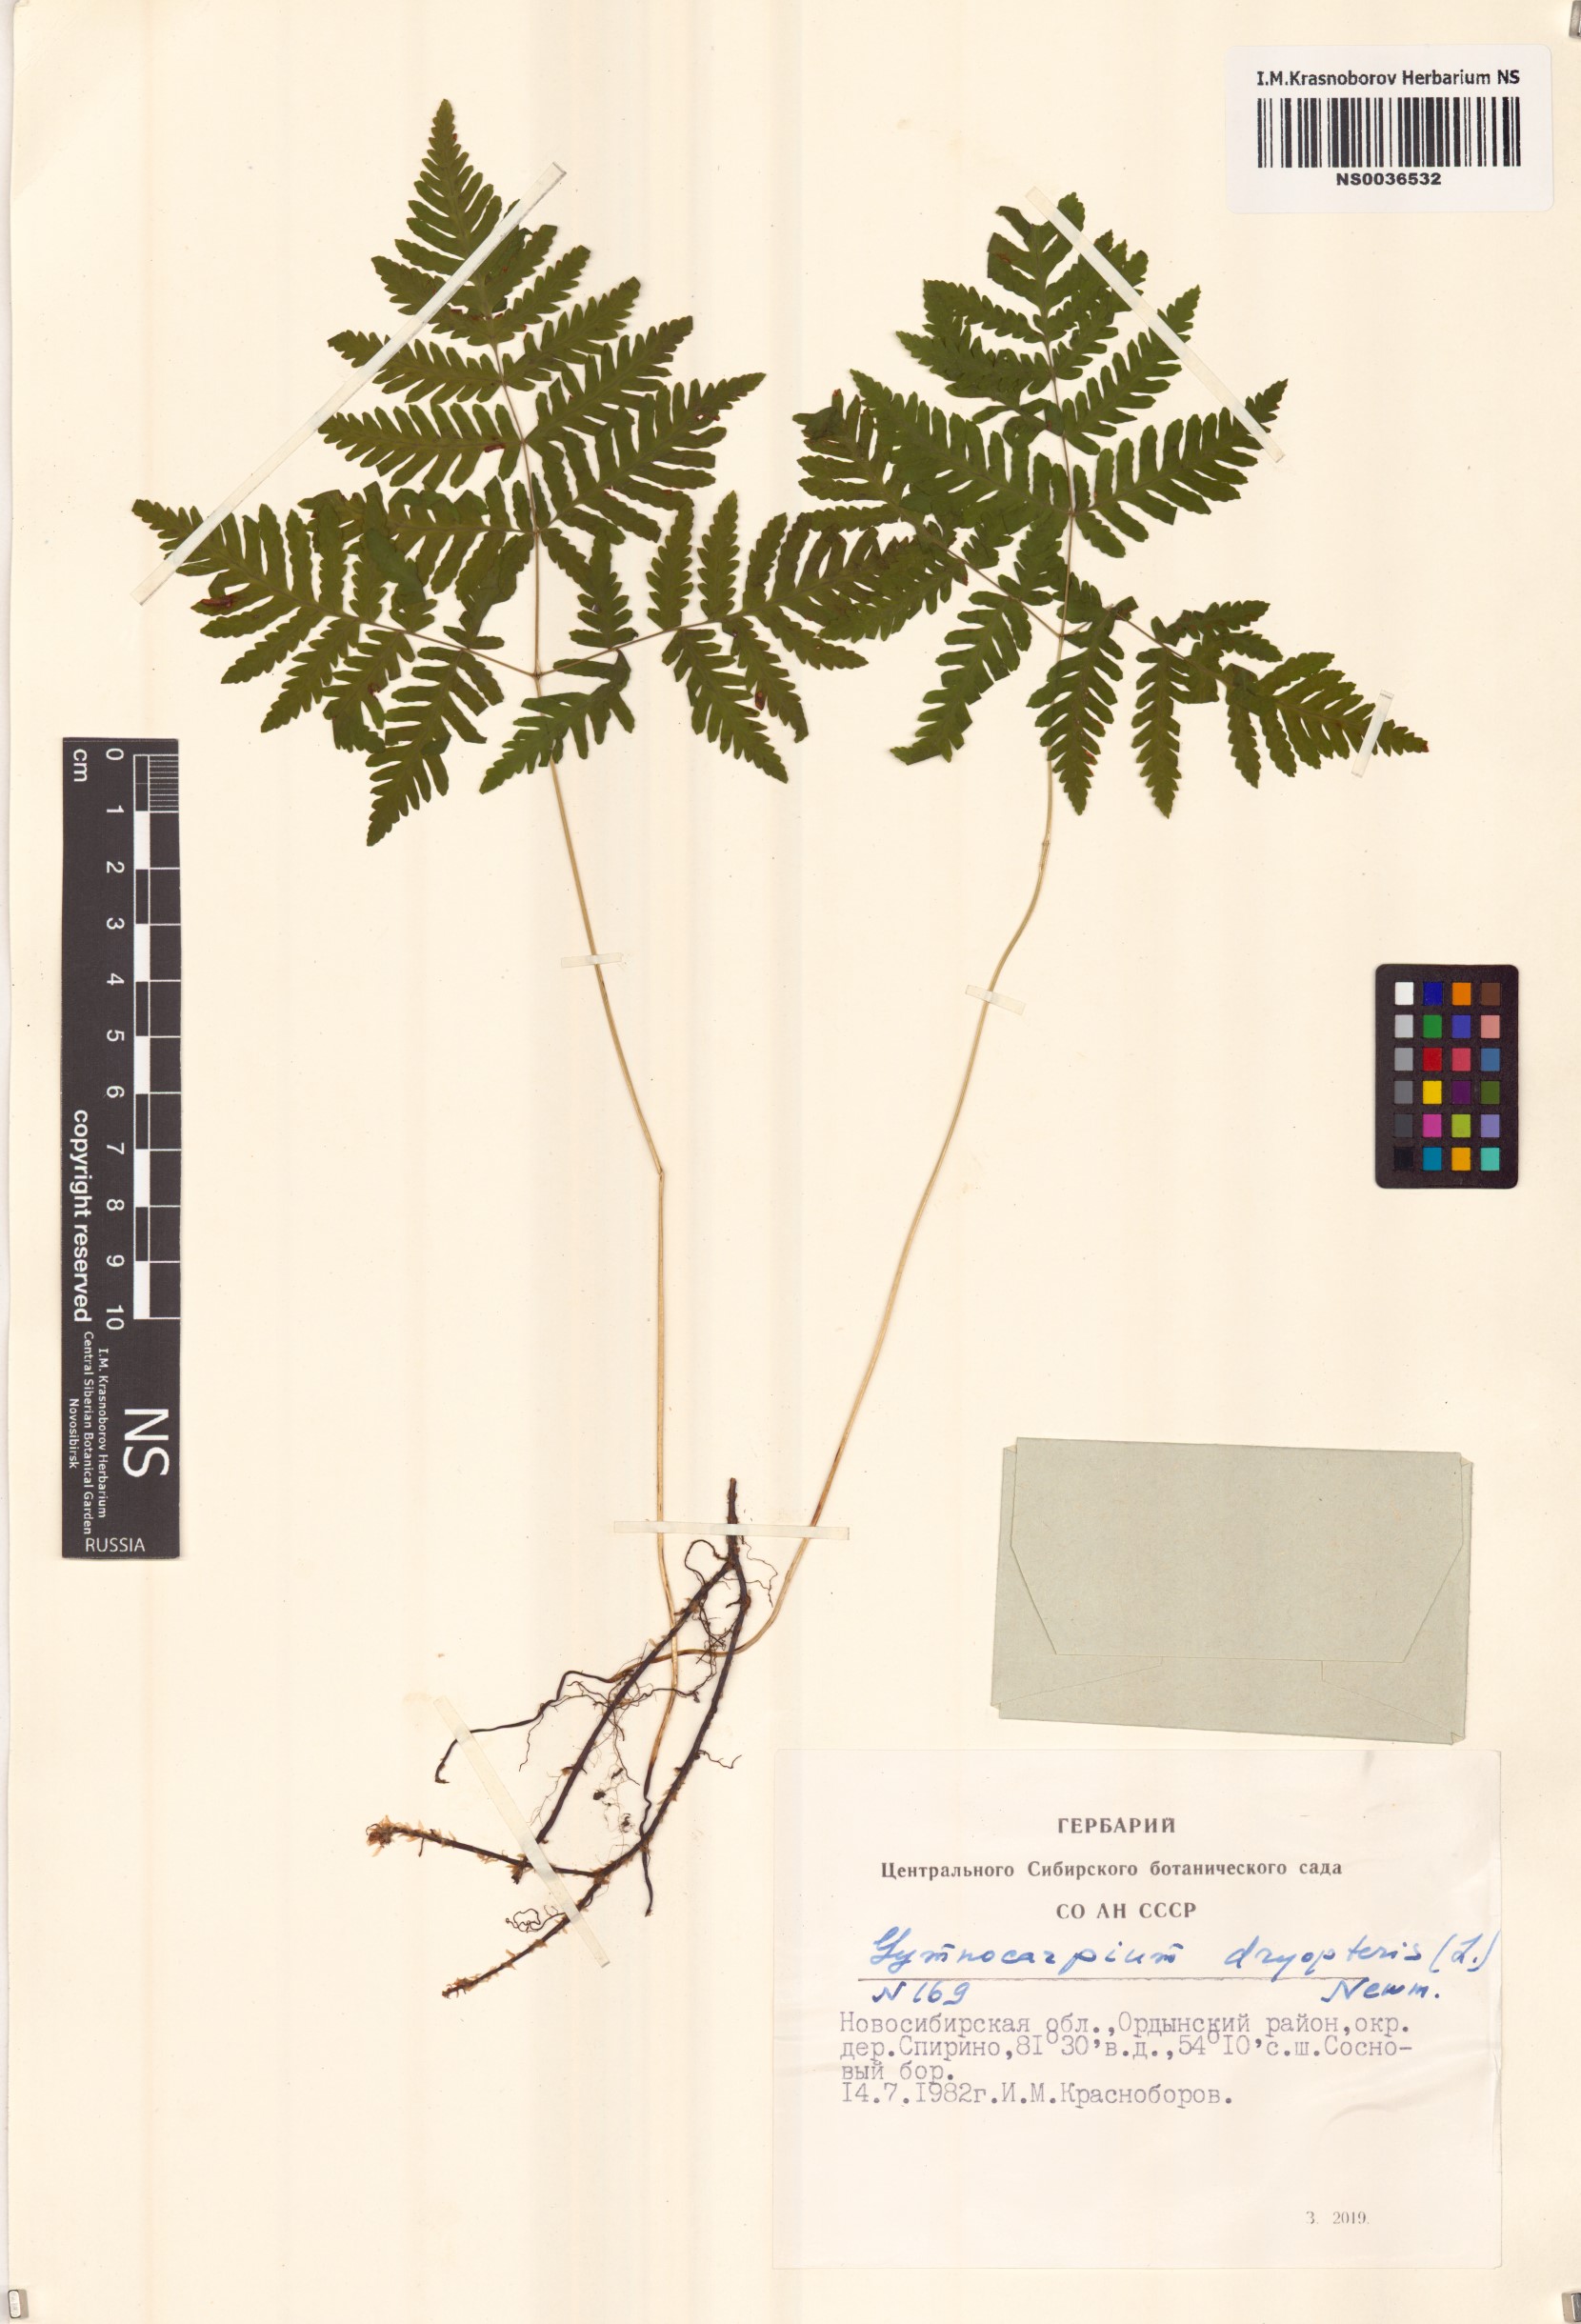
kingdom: Plantae
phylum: Tracheophyta
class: Polypodiopsida
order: Polypodiales
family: Cystopteridaceae
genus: Gymnocarpium
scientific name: Gymnocarpium dryopteris
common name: Oak fern
